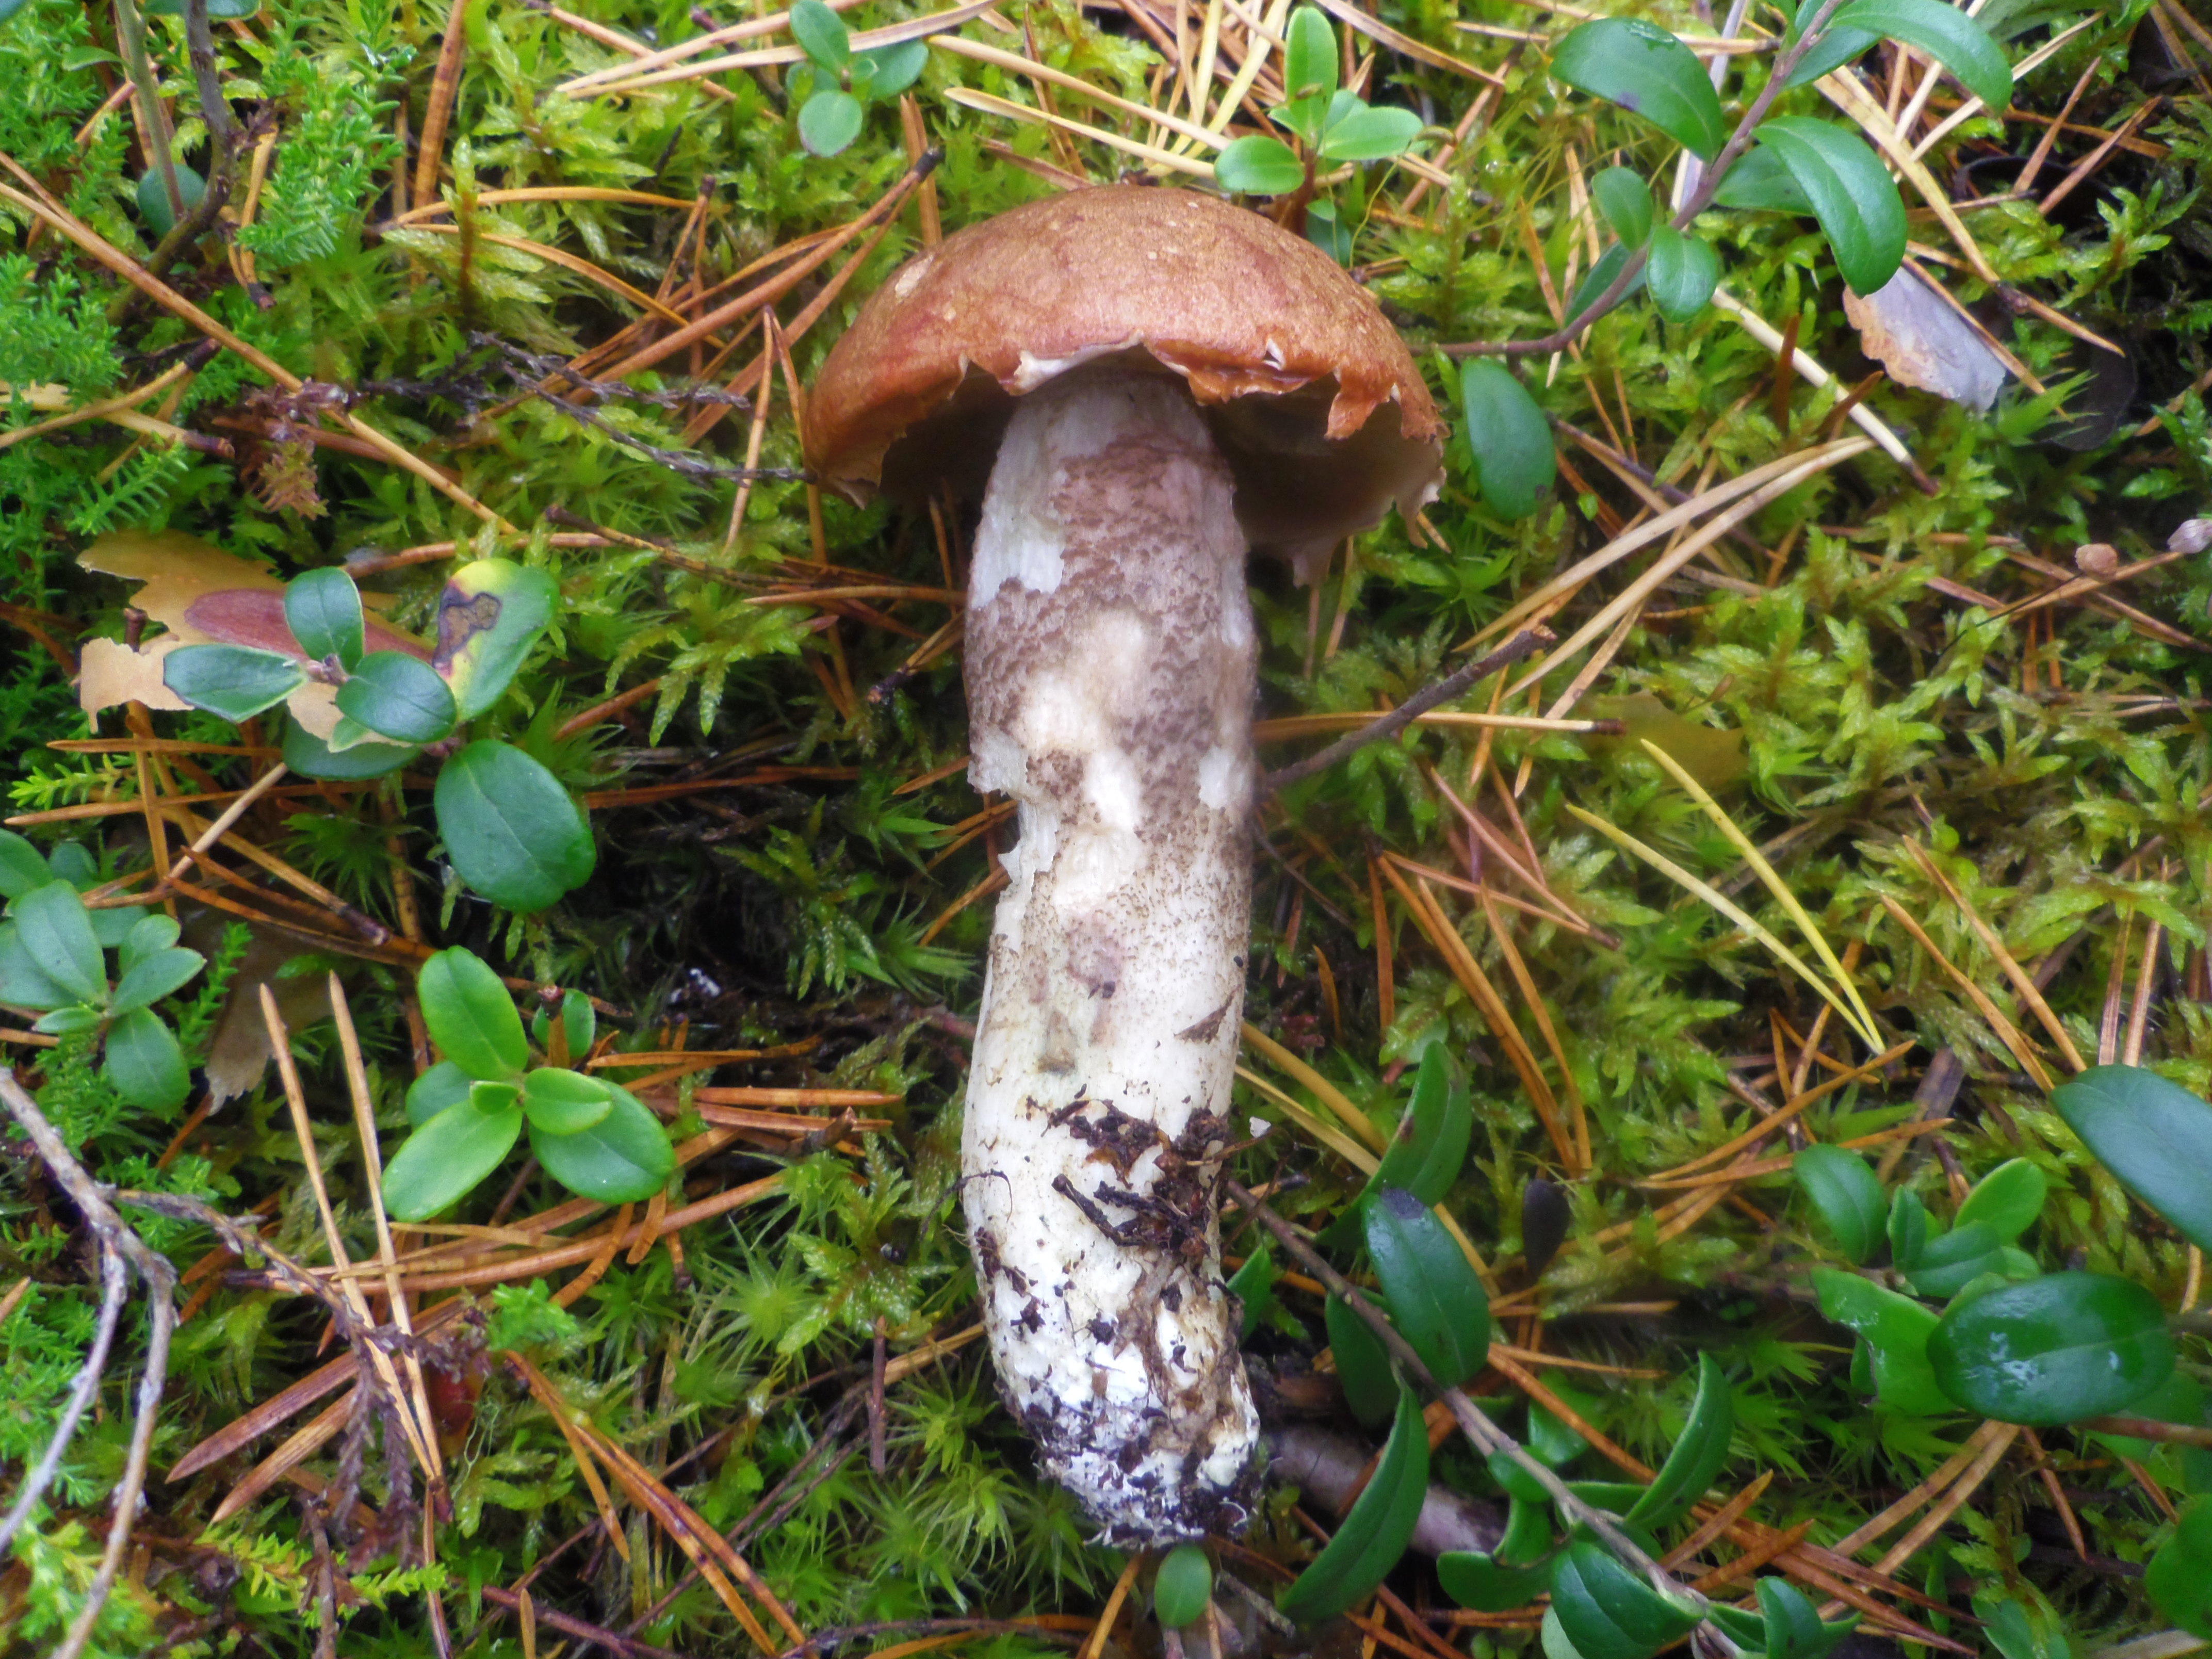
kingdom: Fungi
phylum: Basidiomycota
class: Agaricomycetes
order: Boletales
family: Boletaceae
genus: Leccinum
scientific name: Leccinum vulpinum
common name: Foxy bolete
